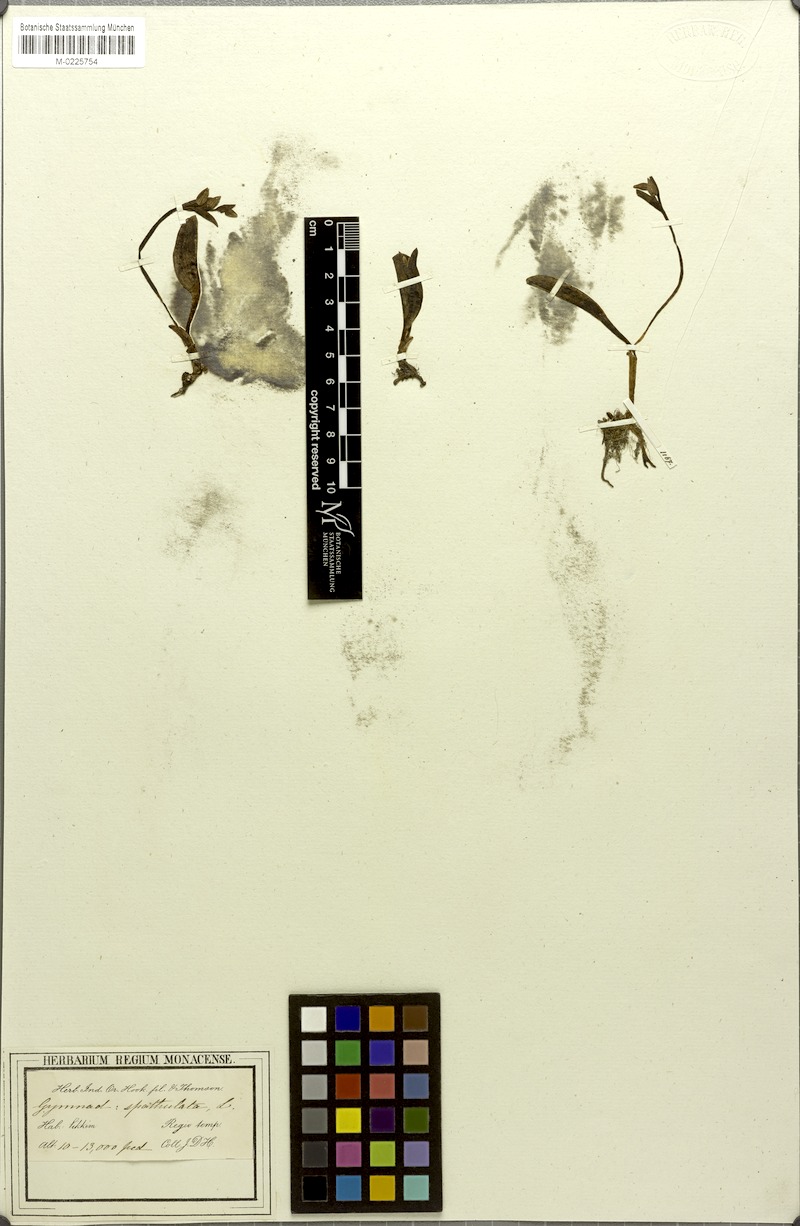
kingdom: Plantae
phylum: Tracheophyta
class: Liliopsida
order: Asparagales
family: Orchidaceae
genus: Galearis
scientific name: Galearis spathulata
